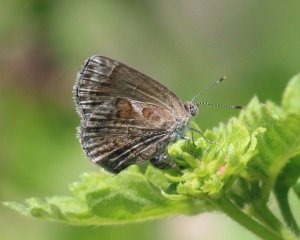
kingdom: Animalia
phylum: Arthropoda
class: Insecta
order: Lepidoptera
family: Lycaenidae
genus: Strymon
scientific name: Strymon bazochii
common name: Lantana Scrub-Hairstreak
